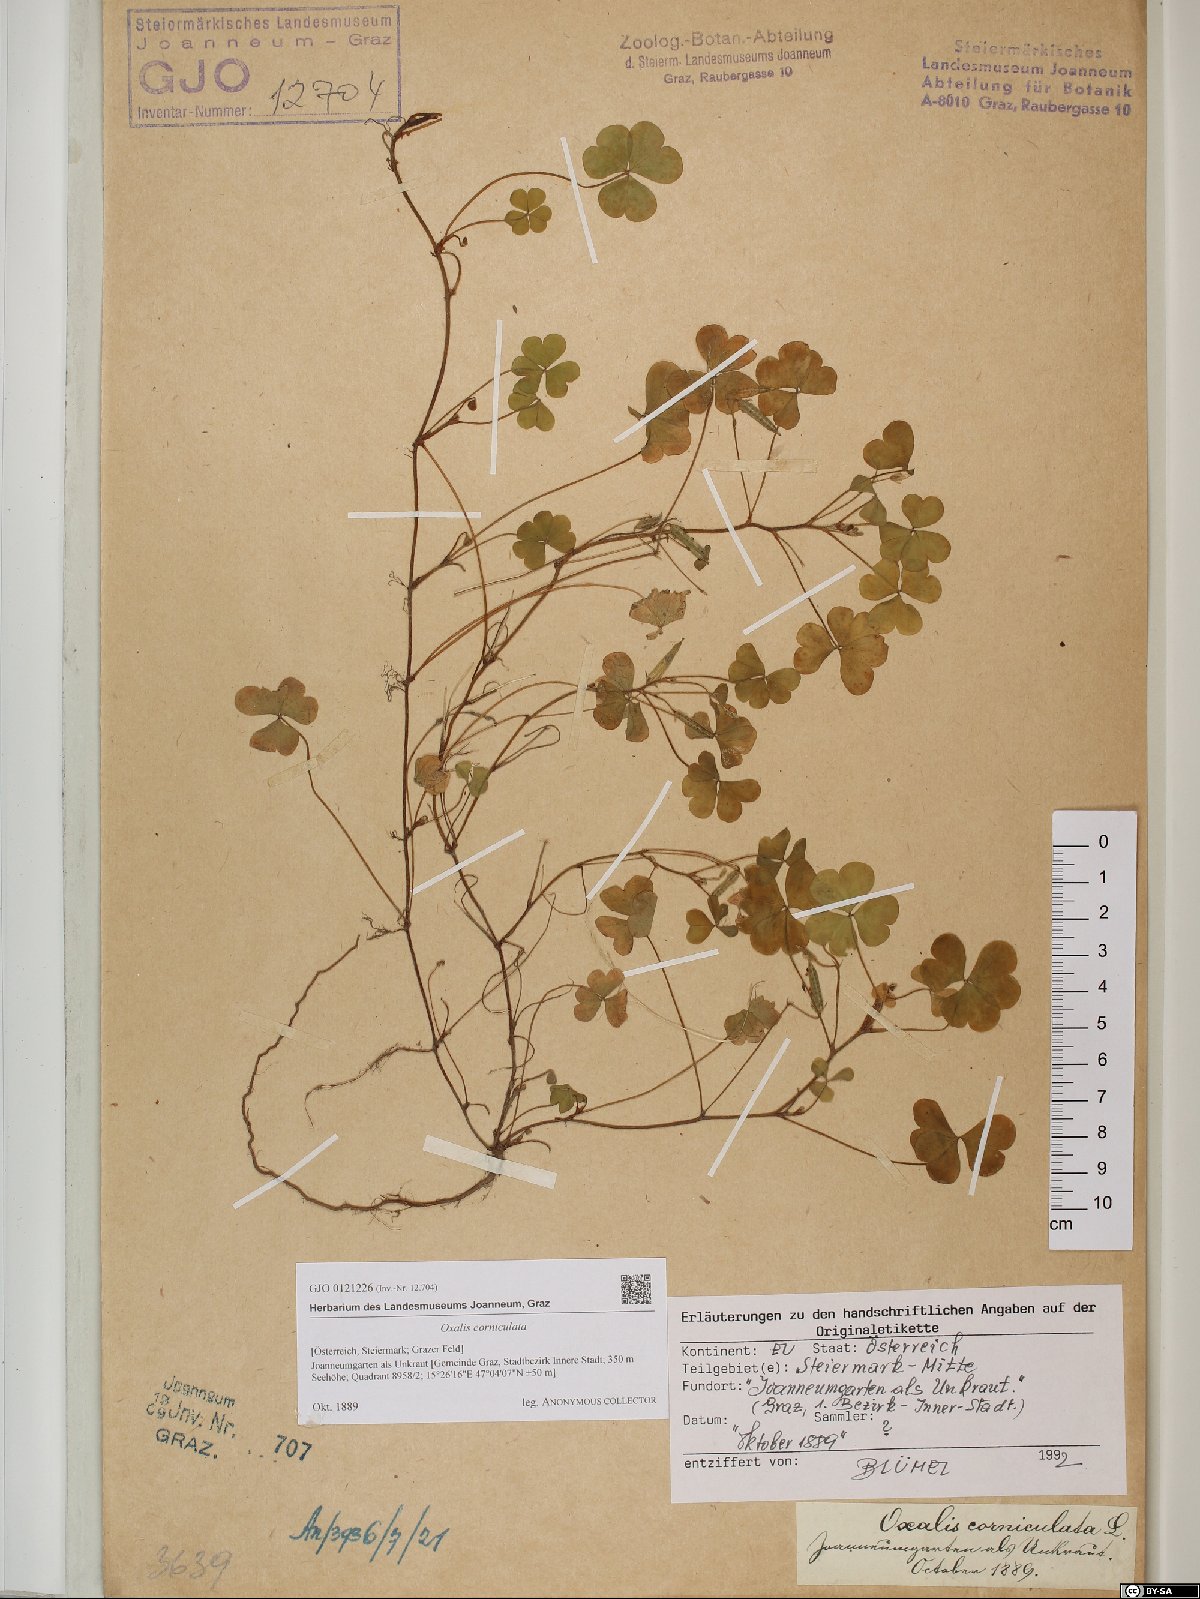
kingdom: Plantae
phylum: Tracheophyta
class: Magnoliopsida
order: Oxalidales
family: Oxalidaceae
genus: Oxalis
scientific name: Oxalis corniculata
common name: Procumbent yellow-sorrel
